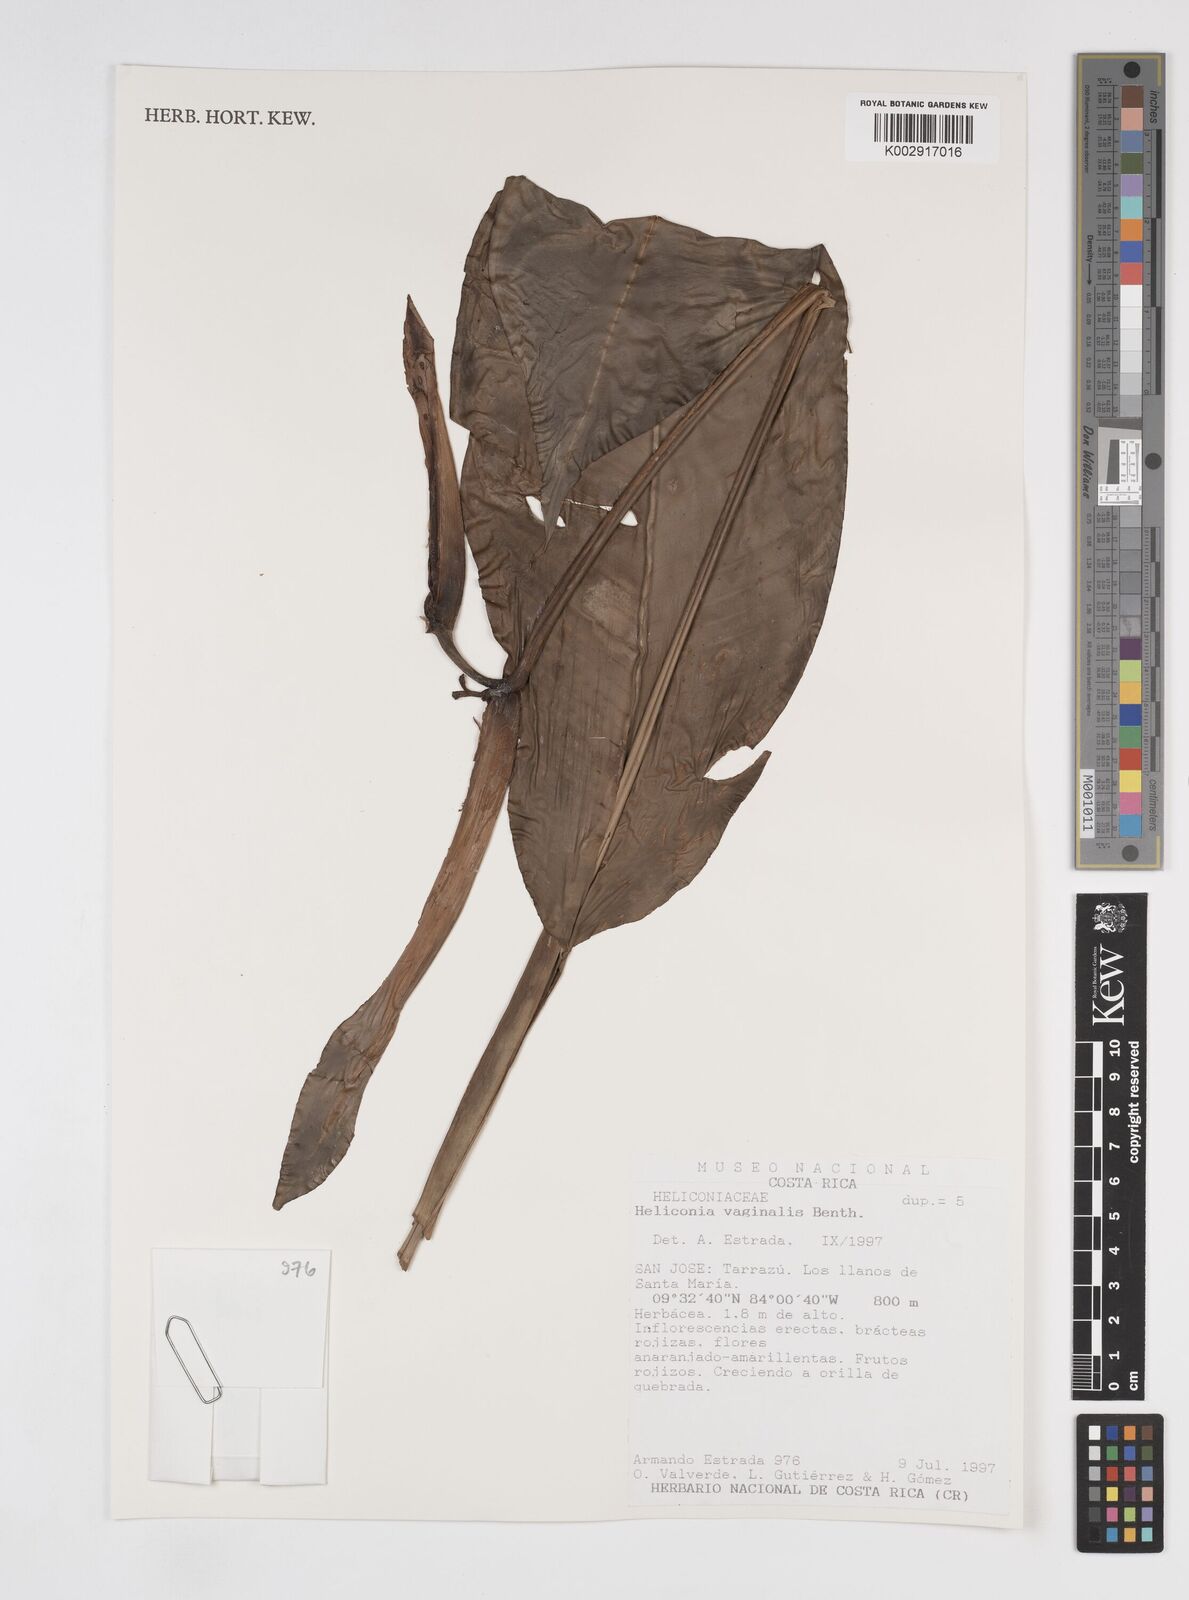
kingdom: Plantae
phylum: Tracheophyta
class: Liliopsida
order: Zingiberales
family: Heliconiaceae
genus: Heliconia
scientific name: Heliconia vaginalis
